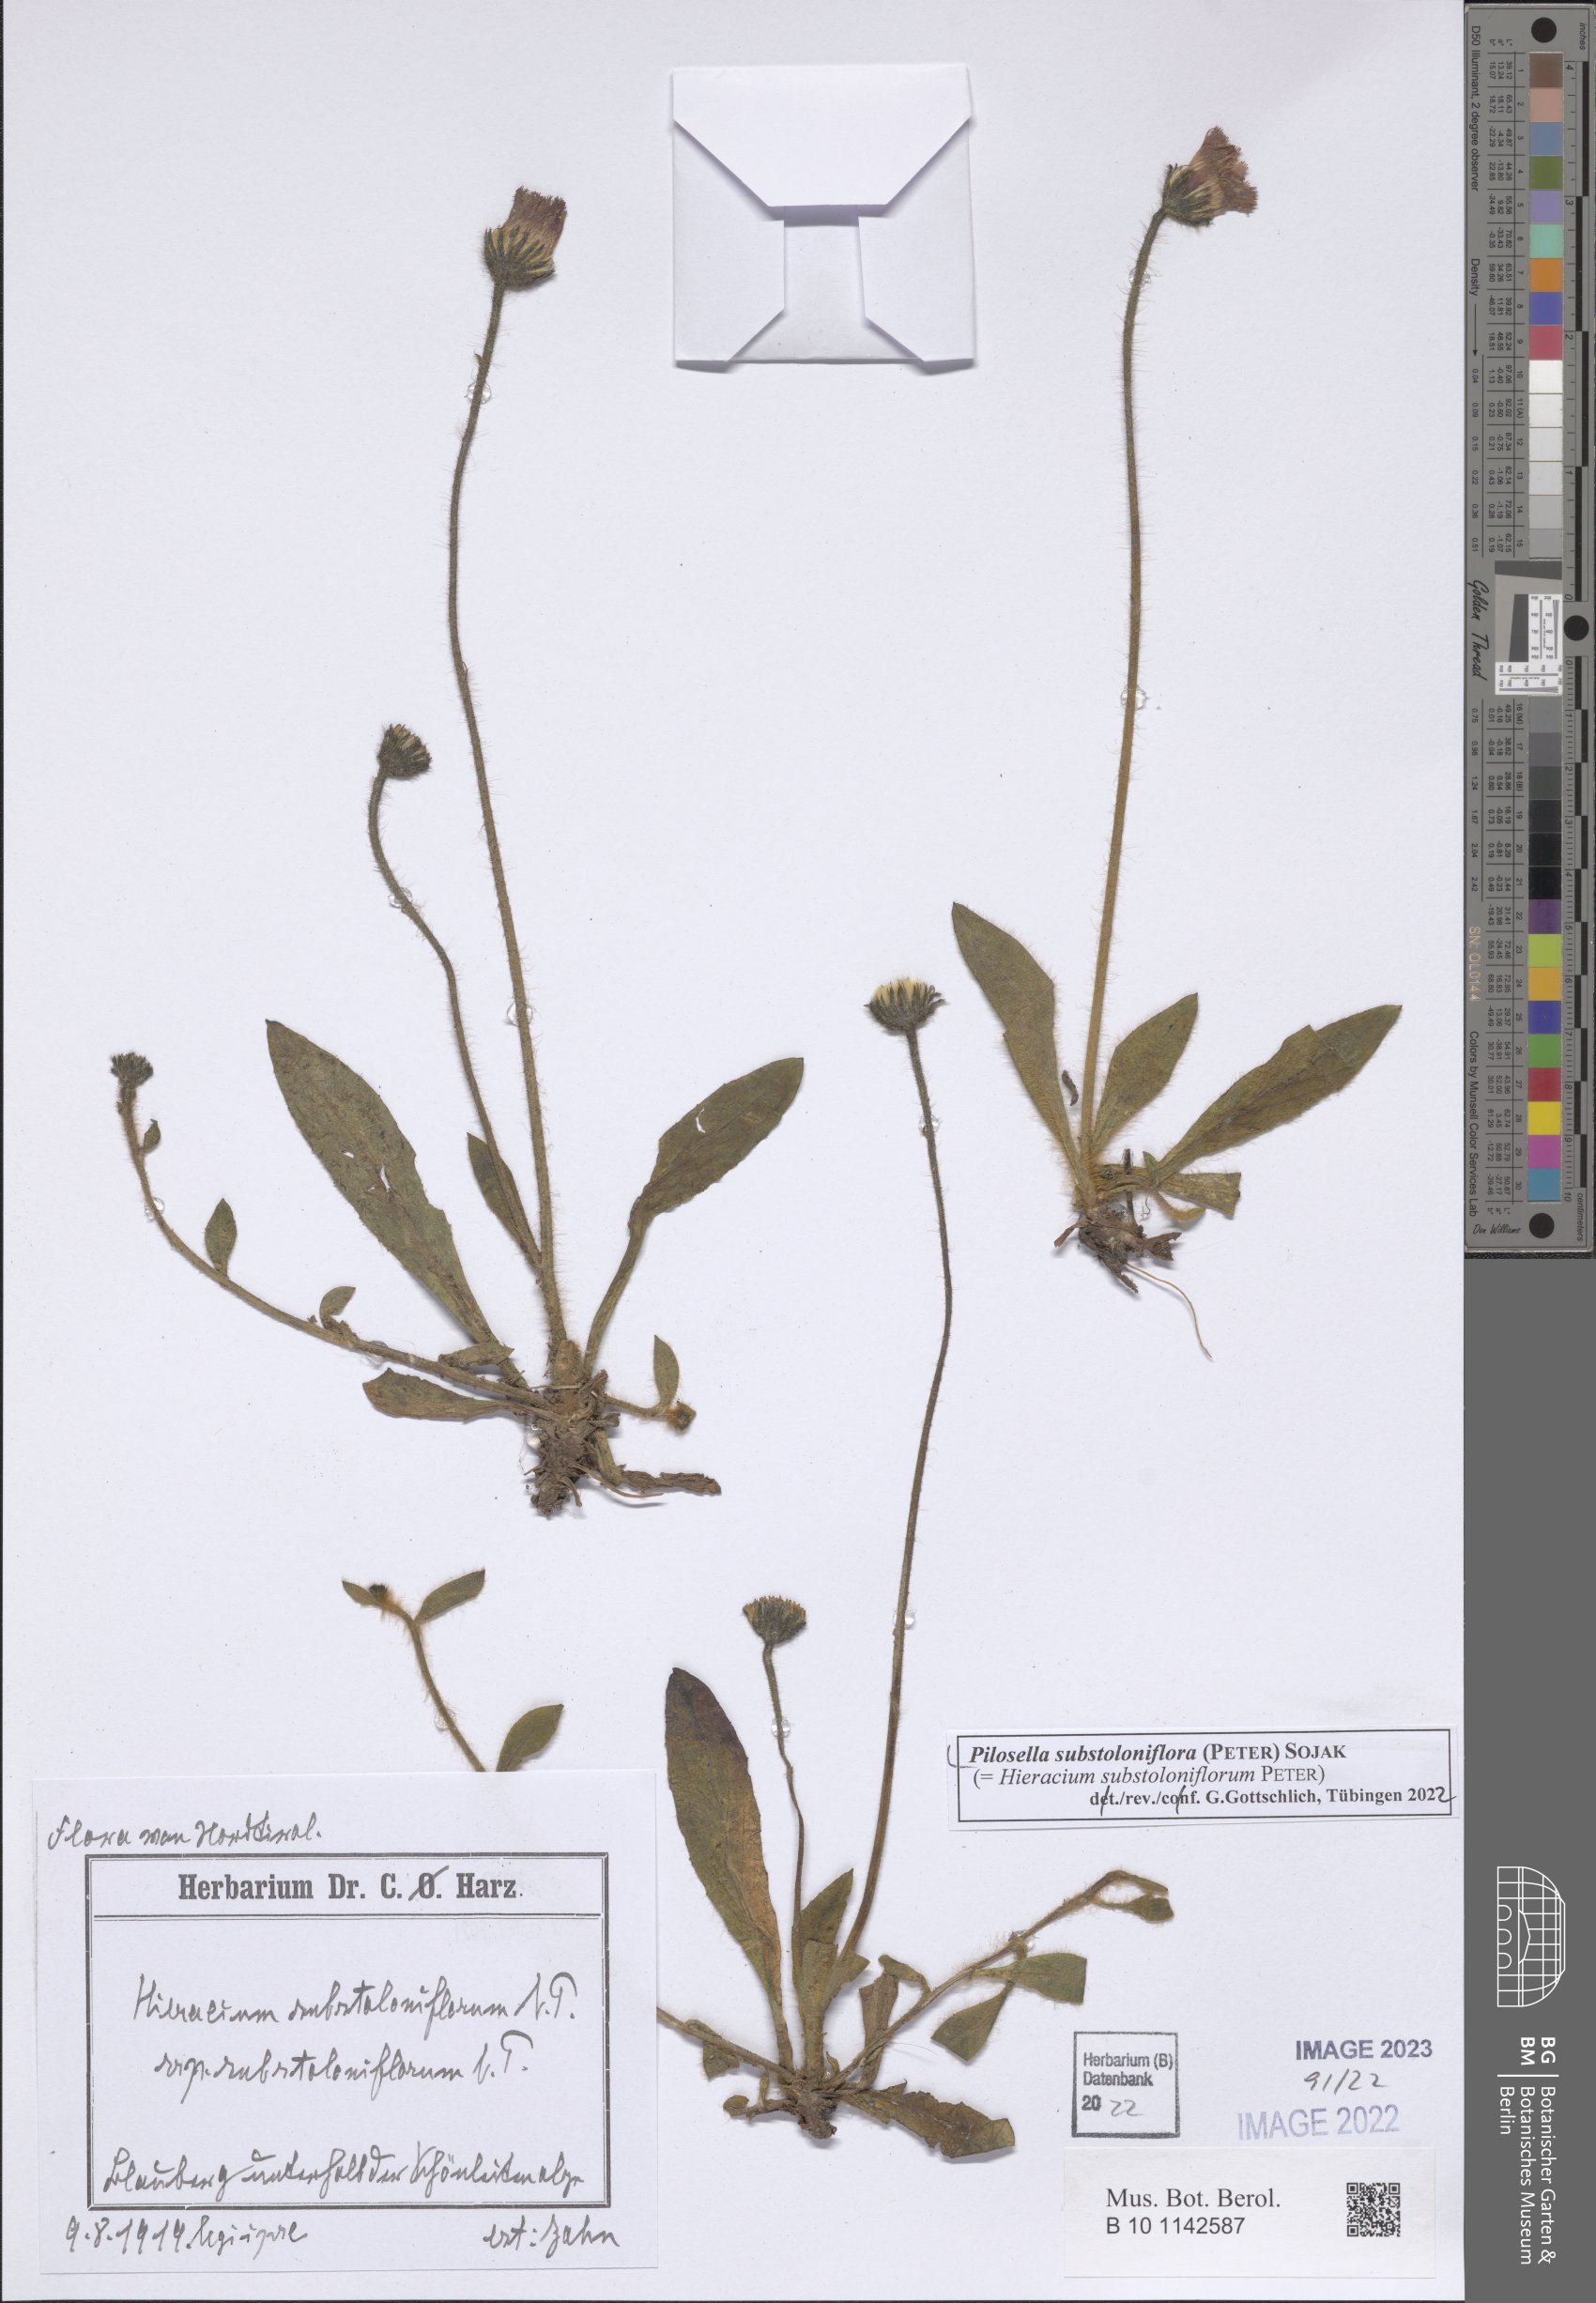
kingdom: Plantae
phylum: Tracheophyta
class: Magnoliopsida
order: Asterales
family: Asteraceae
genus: Pilosella
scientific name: Pilosella substoloniflora
